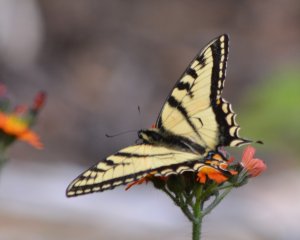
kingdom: Animalia
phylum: Arthropoda
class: Insecta
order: Lepidoptera
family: Papilionidae
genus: Pterourus
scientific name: Pterourus canadensis
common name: Canadian Tiger Swallowtail
